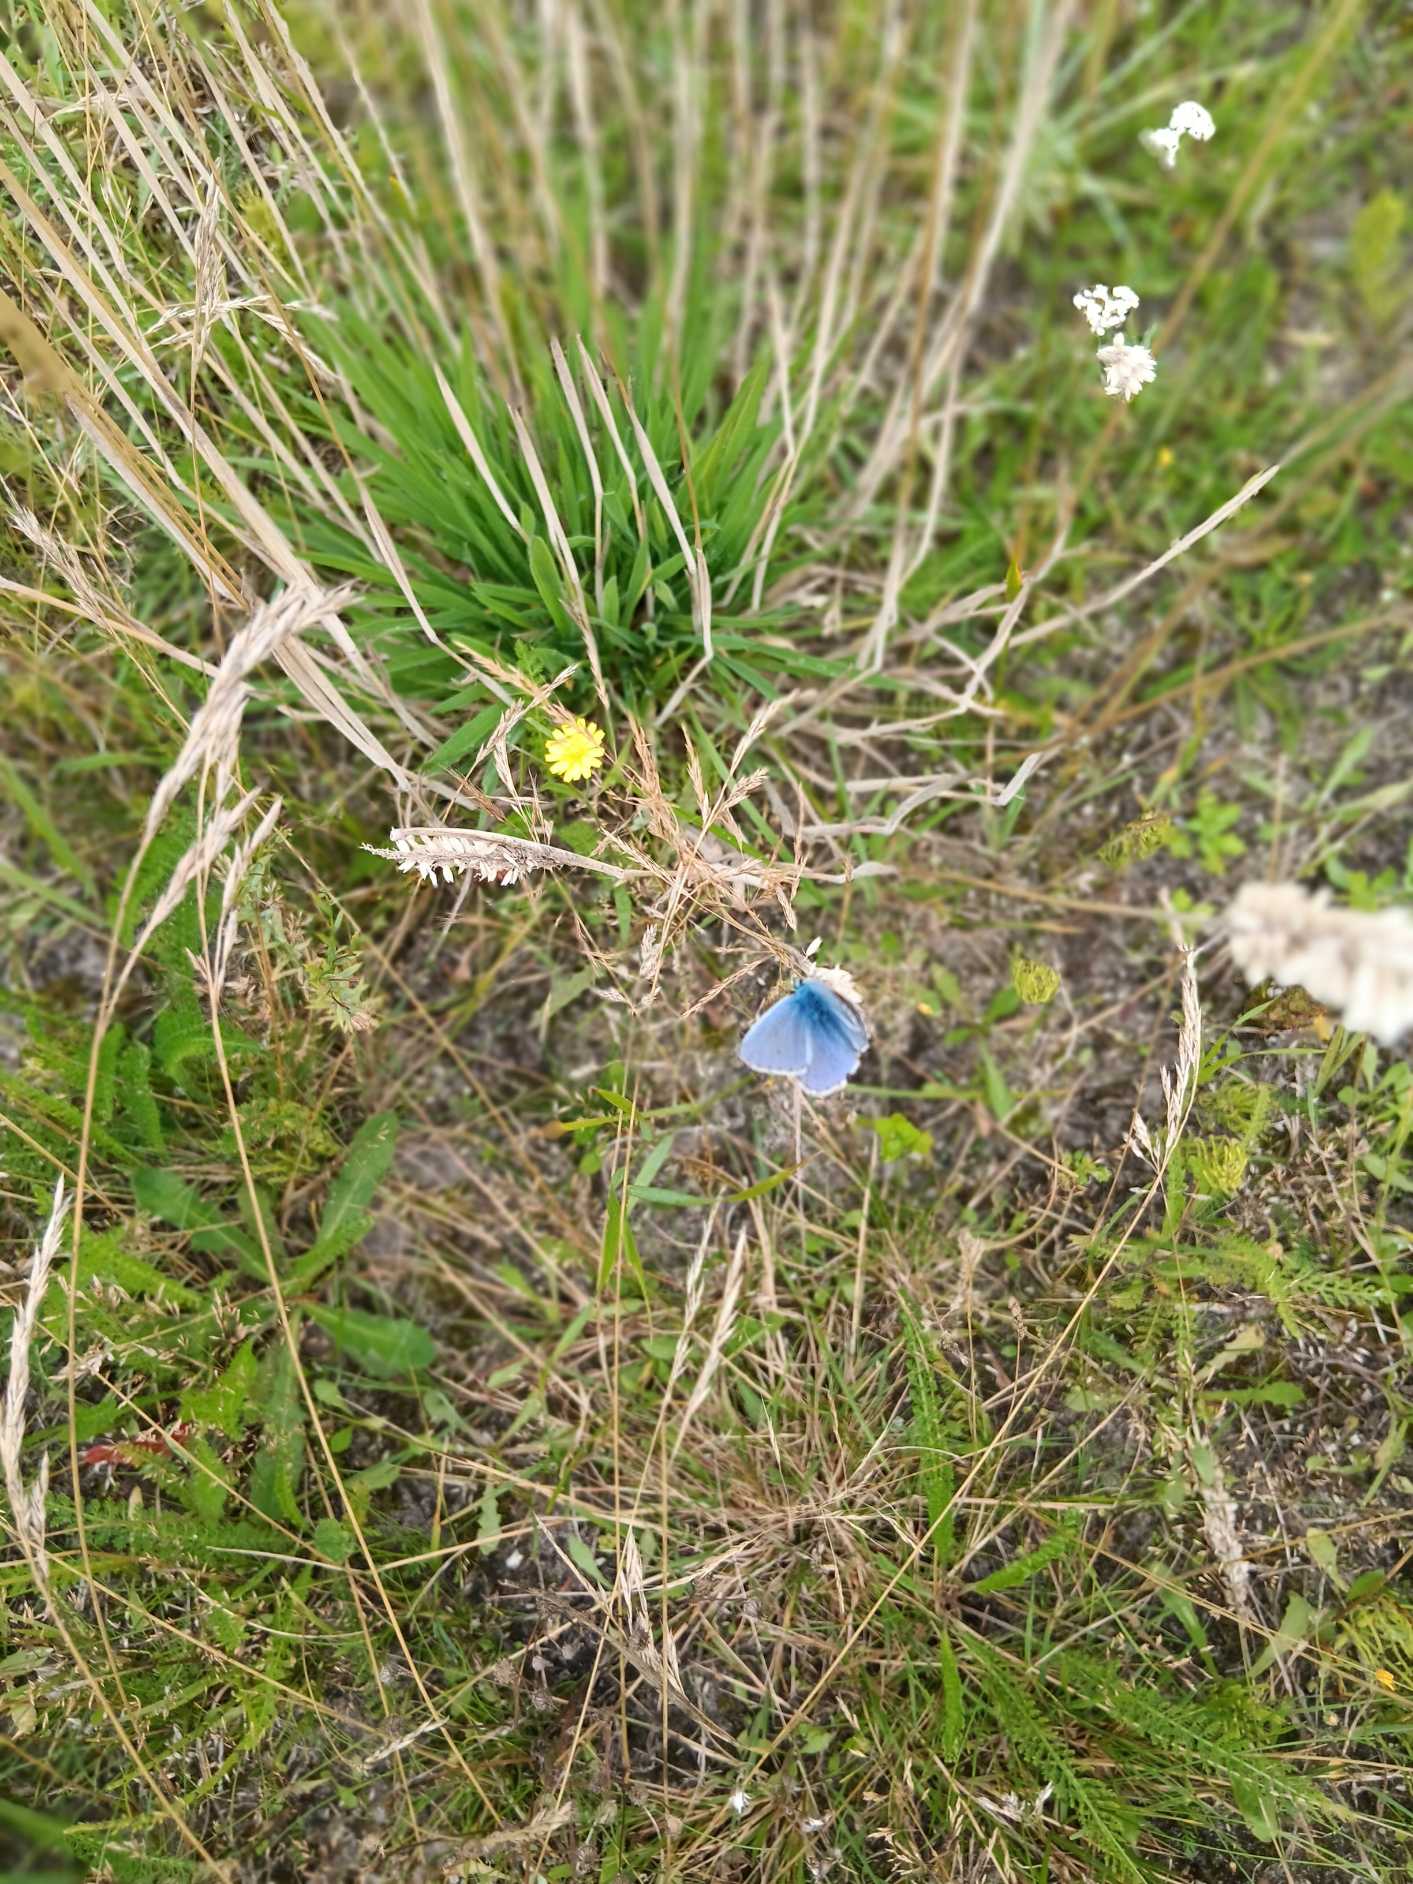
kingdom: Animalia
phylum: Arthropoda
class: Insecta
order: Lepidoptera
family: Lycaenidae
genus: Polyommatus
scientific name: Polyommatus icarus
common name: Almindelig blåfugl
